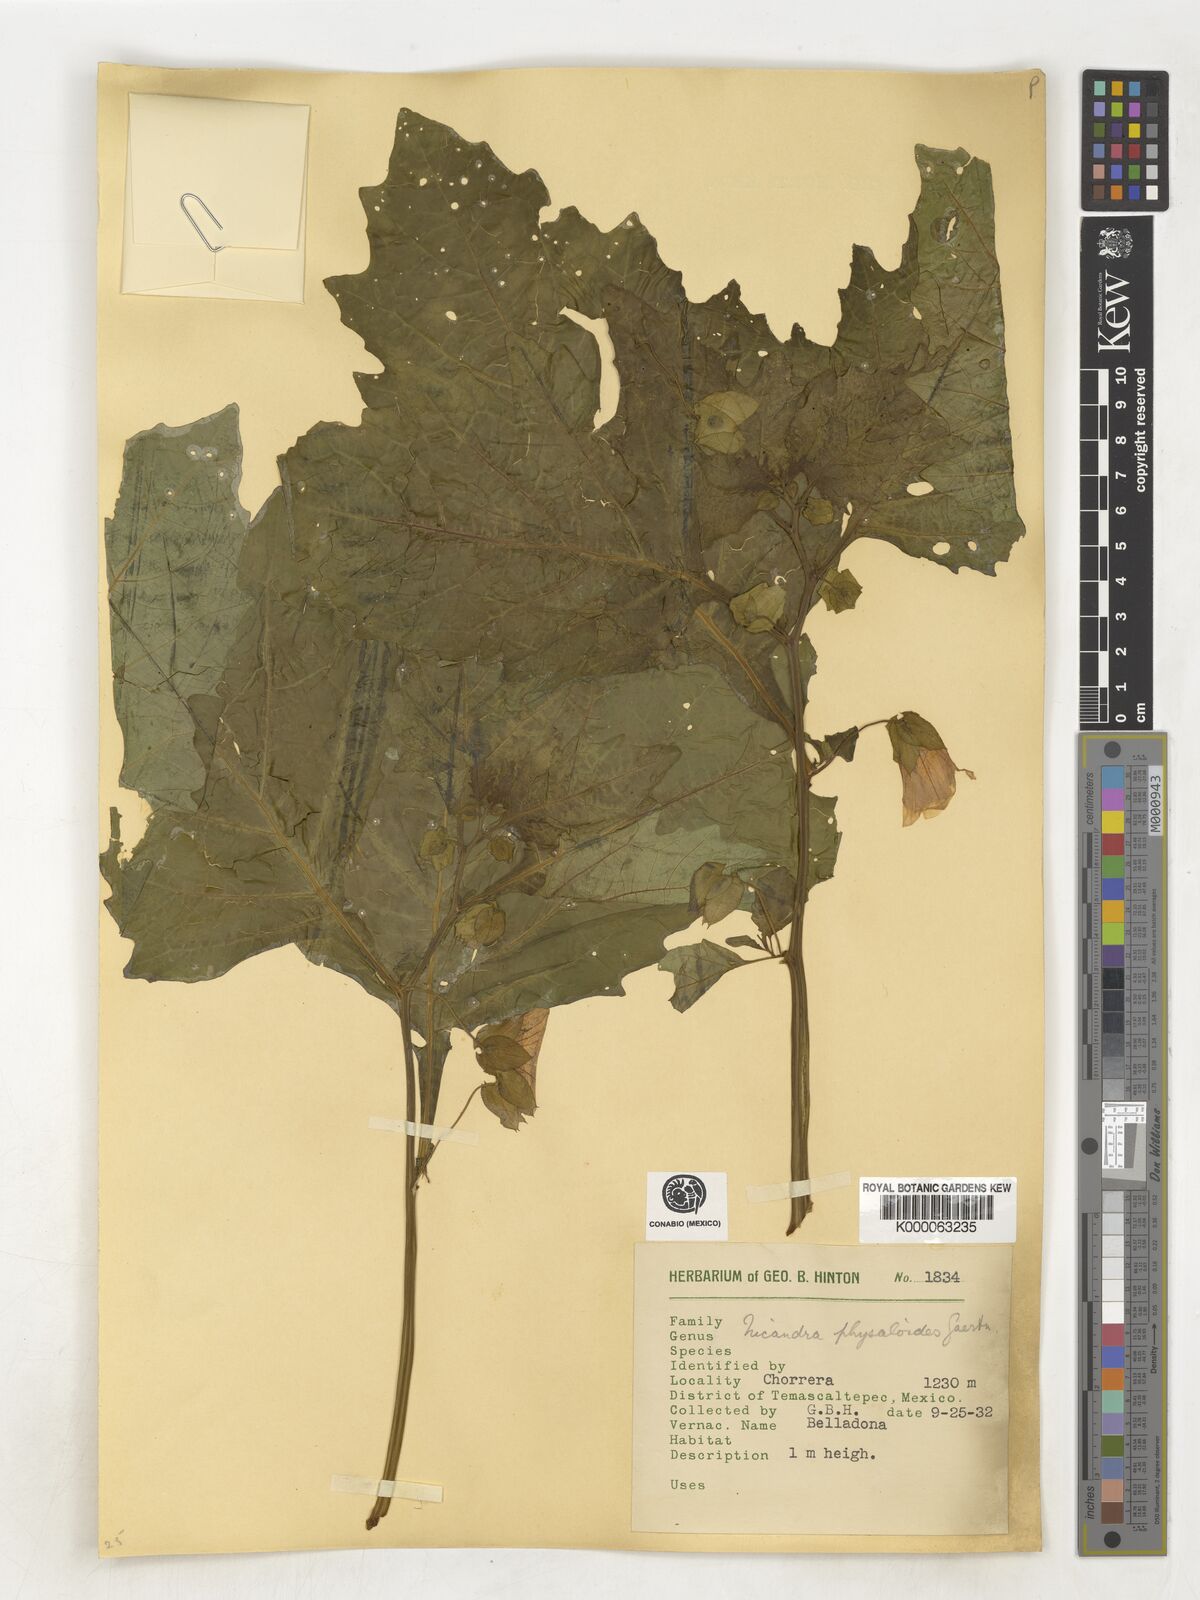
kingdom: Plantae
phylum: Tracheophyta
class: Magnoliopsida
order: Solanales
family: Solanaceae
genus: Nicandra
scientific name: Nicandra
